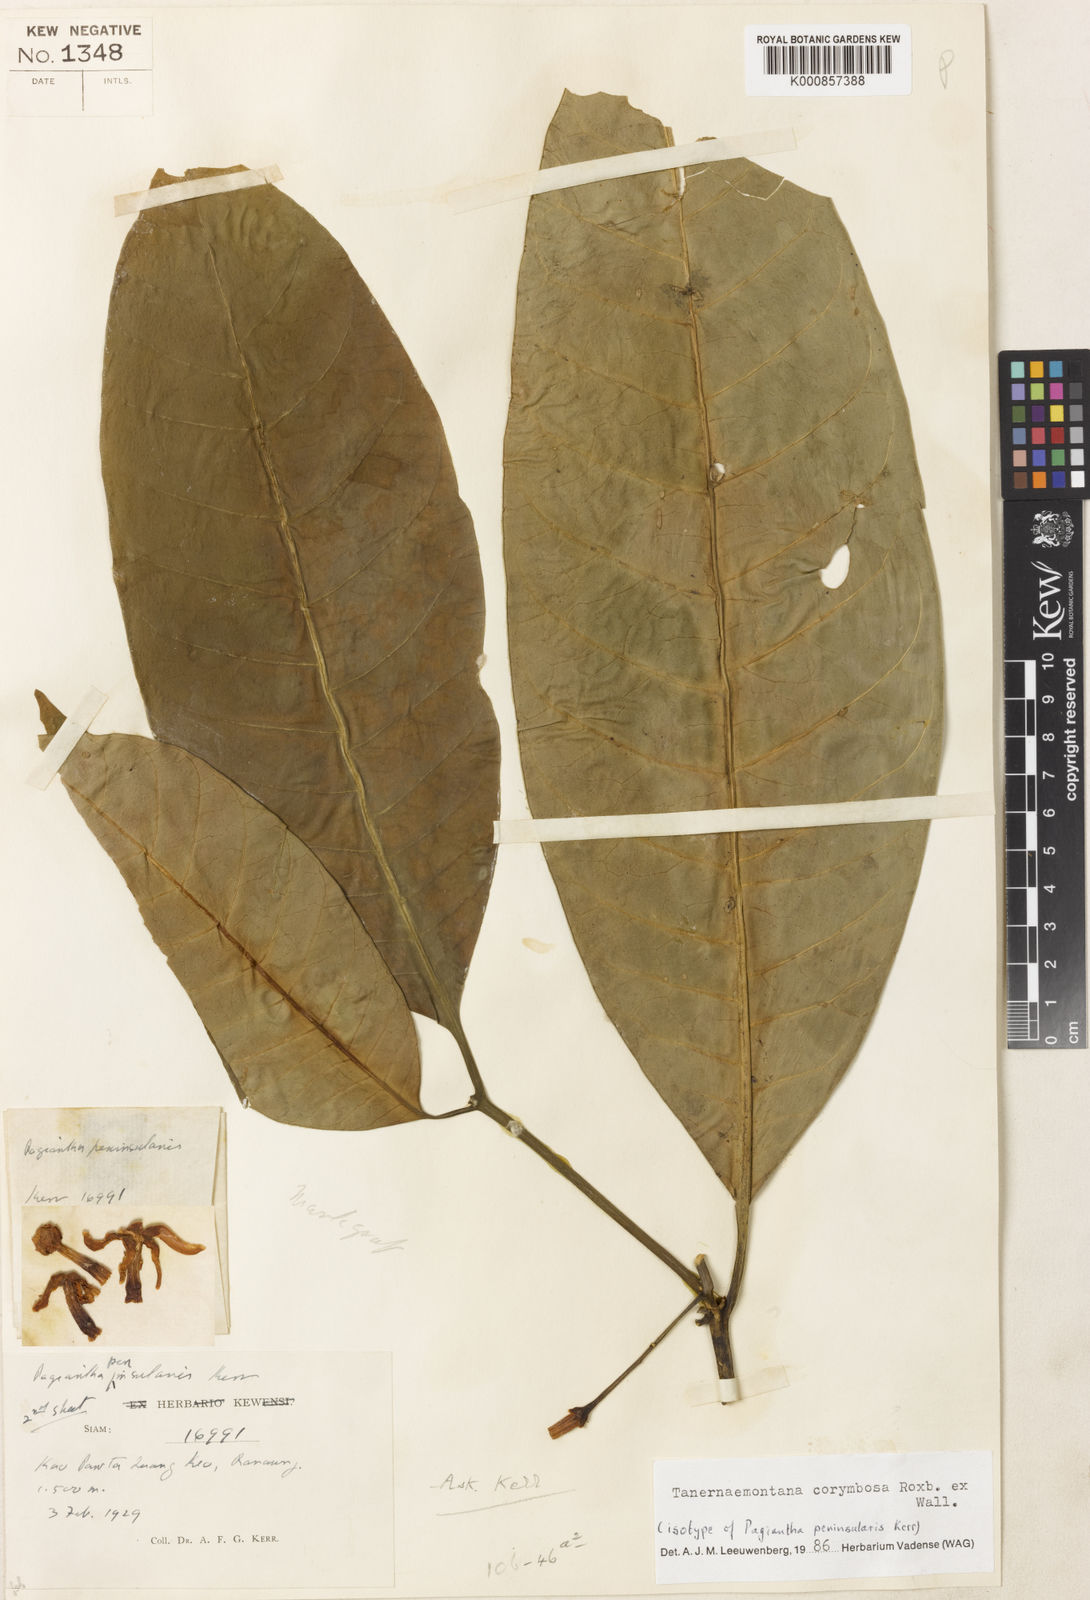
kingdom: Plantae
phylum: Tracheophyta
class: Magnoliopsida
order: Gentianales
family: Apocynaceae
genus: Tabernaemontana
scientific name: Tabernaemontana corymbosa
